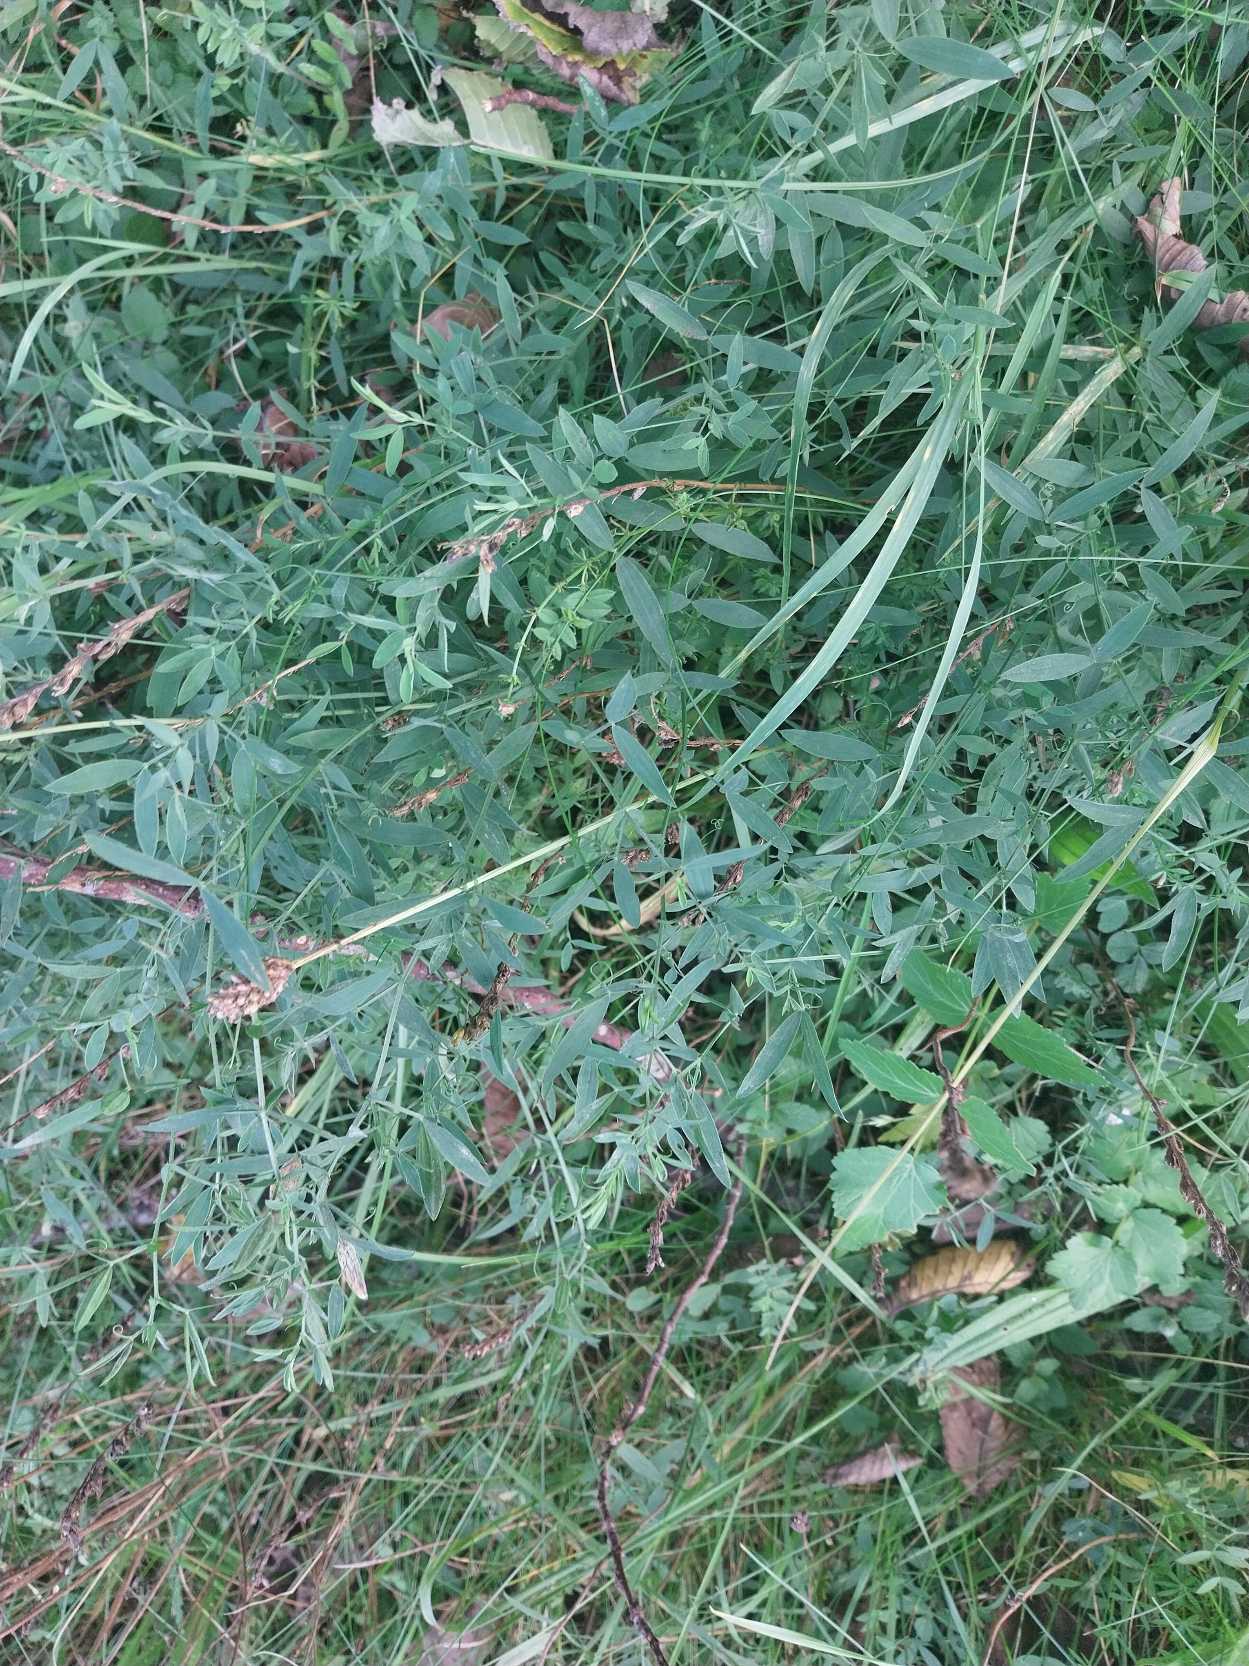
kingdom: Plantae
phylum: Tracheophyta
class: Magnoliopsida
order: Fabales
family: Fabaceae
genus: Lathyrus
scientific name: Lathyrus pratensis
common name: Gul fladbælg
